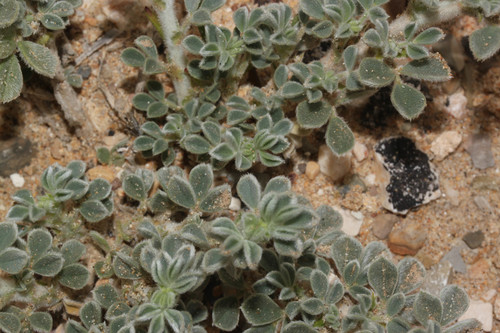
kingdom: Plantae
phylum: Tracheophyta
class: Magnoliopsida
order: Fabales
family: Fabaceae
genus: Medicago
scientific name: Medicago marina
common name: Sea medick
